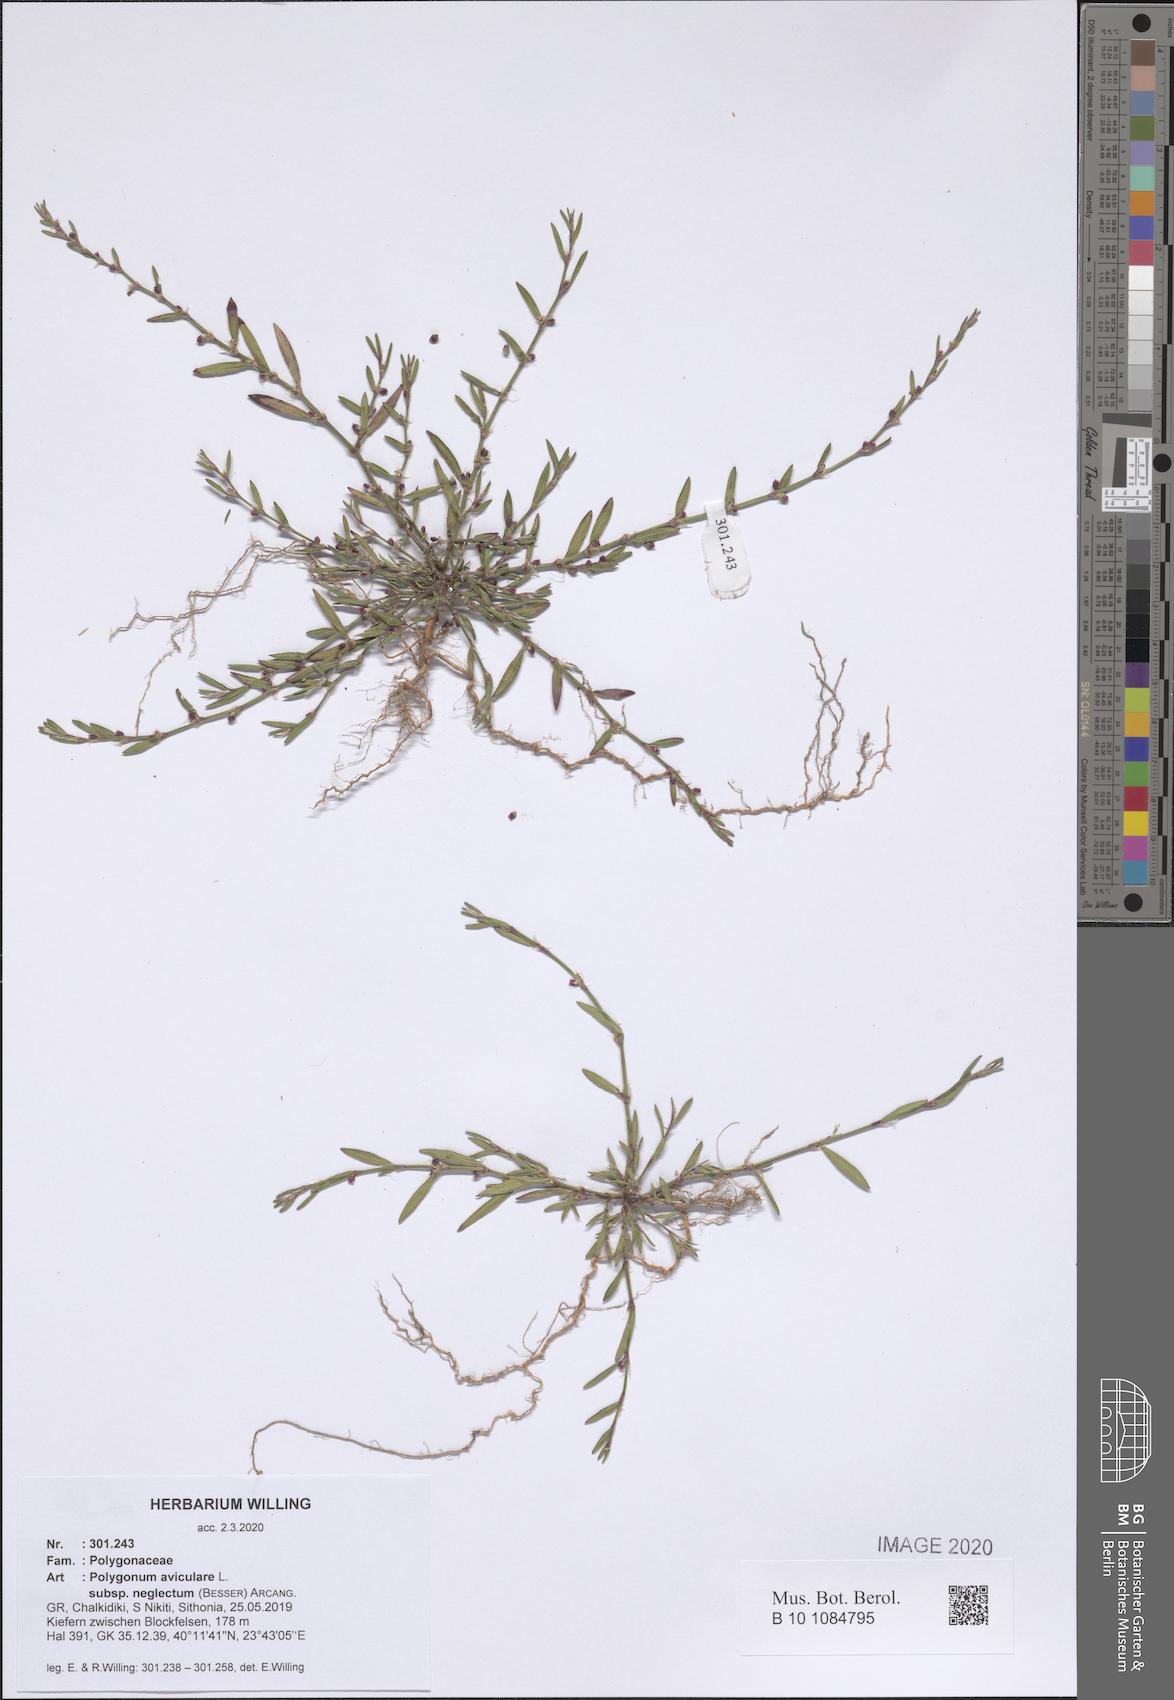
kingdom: Plantae
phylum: Tracheophyta
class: Magnoliopsida
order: Caryophyllales
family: Polygonaceae
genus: Polygonum
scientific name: Polygonum aviculare
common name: Prostrate knotweed
